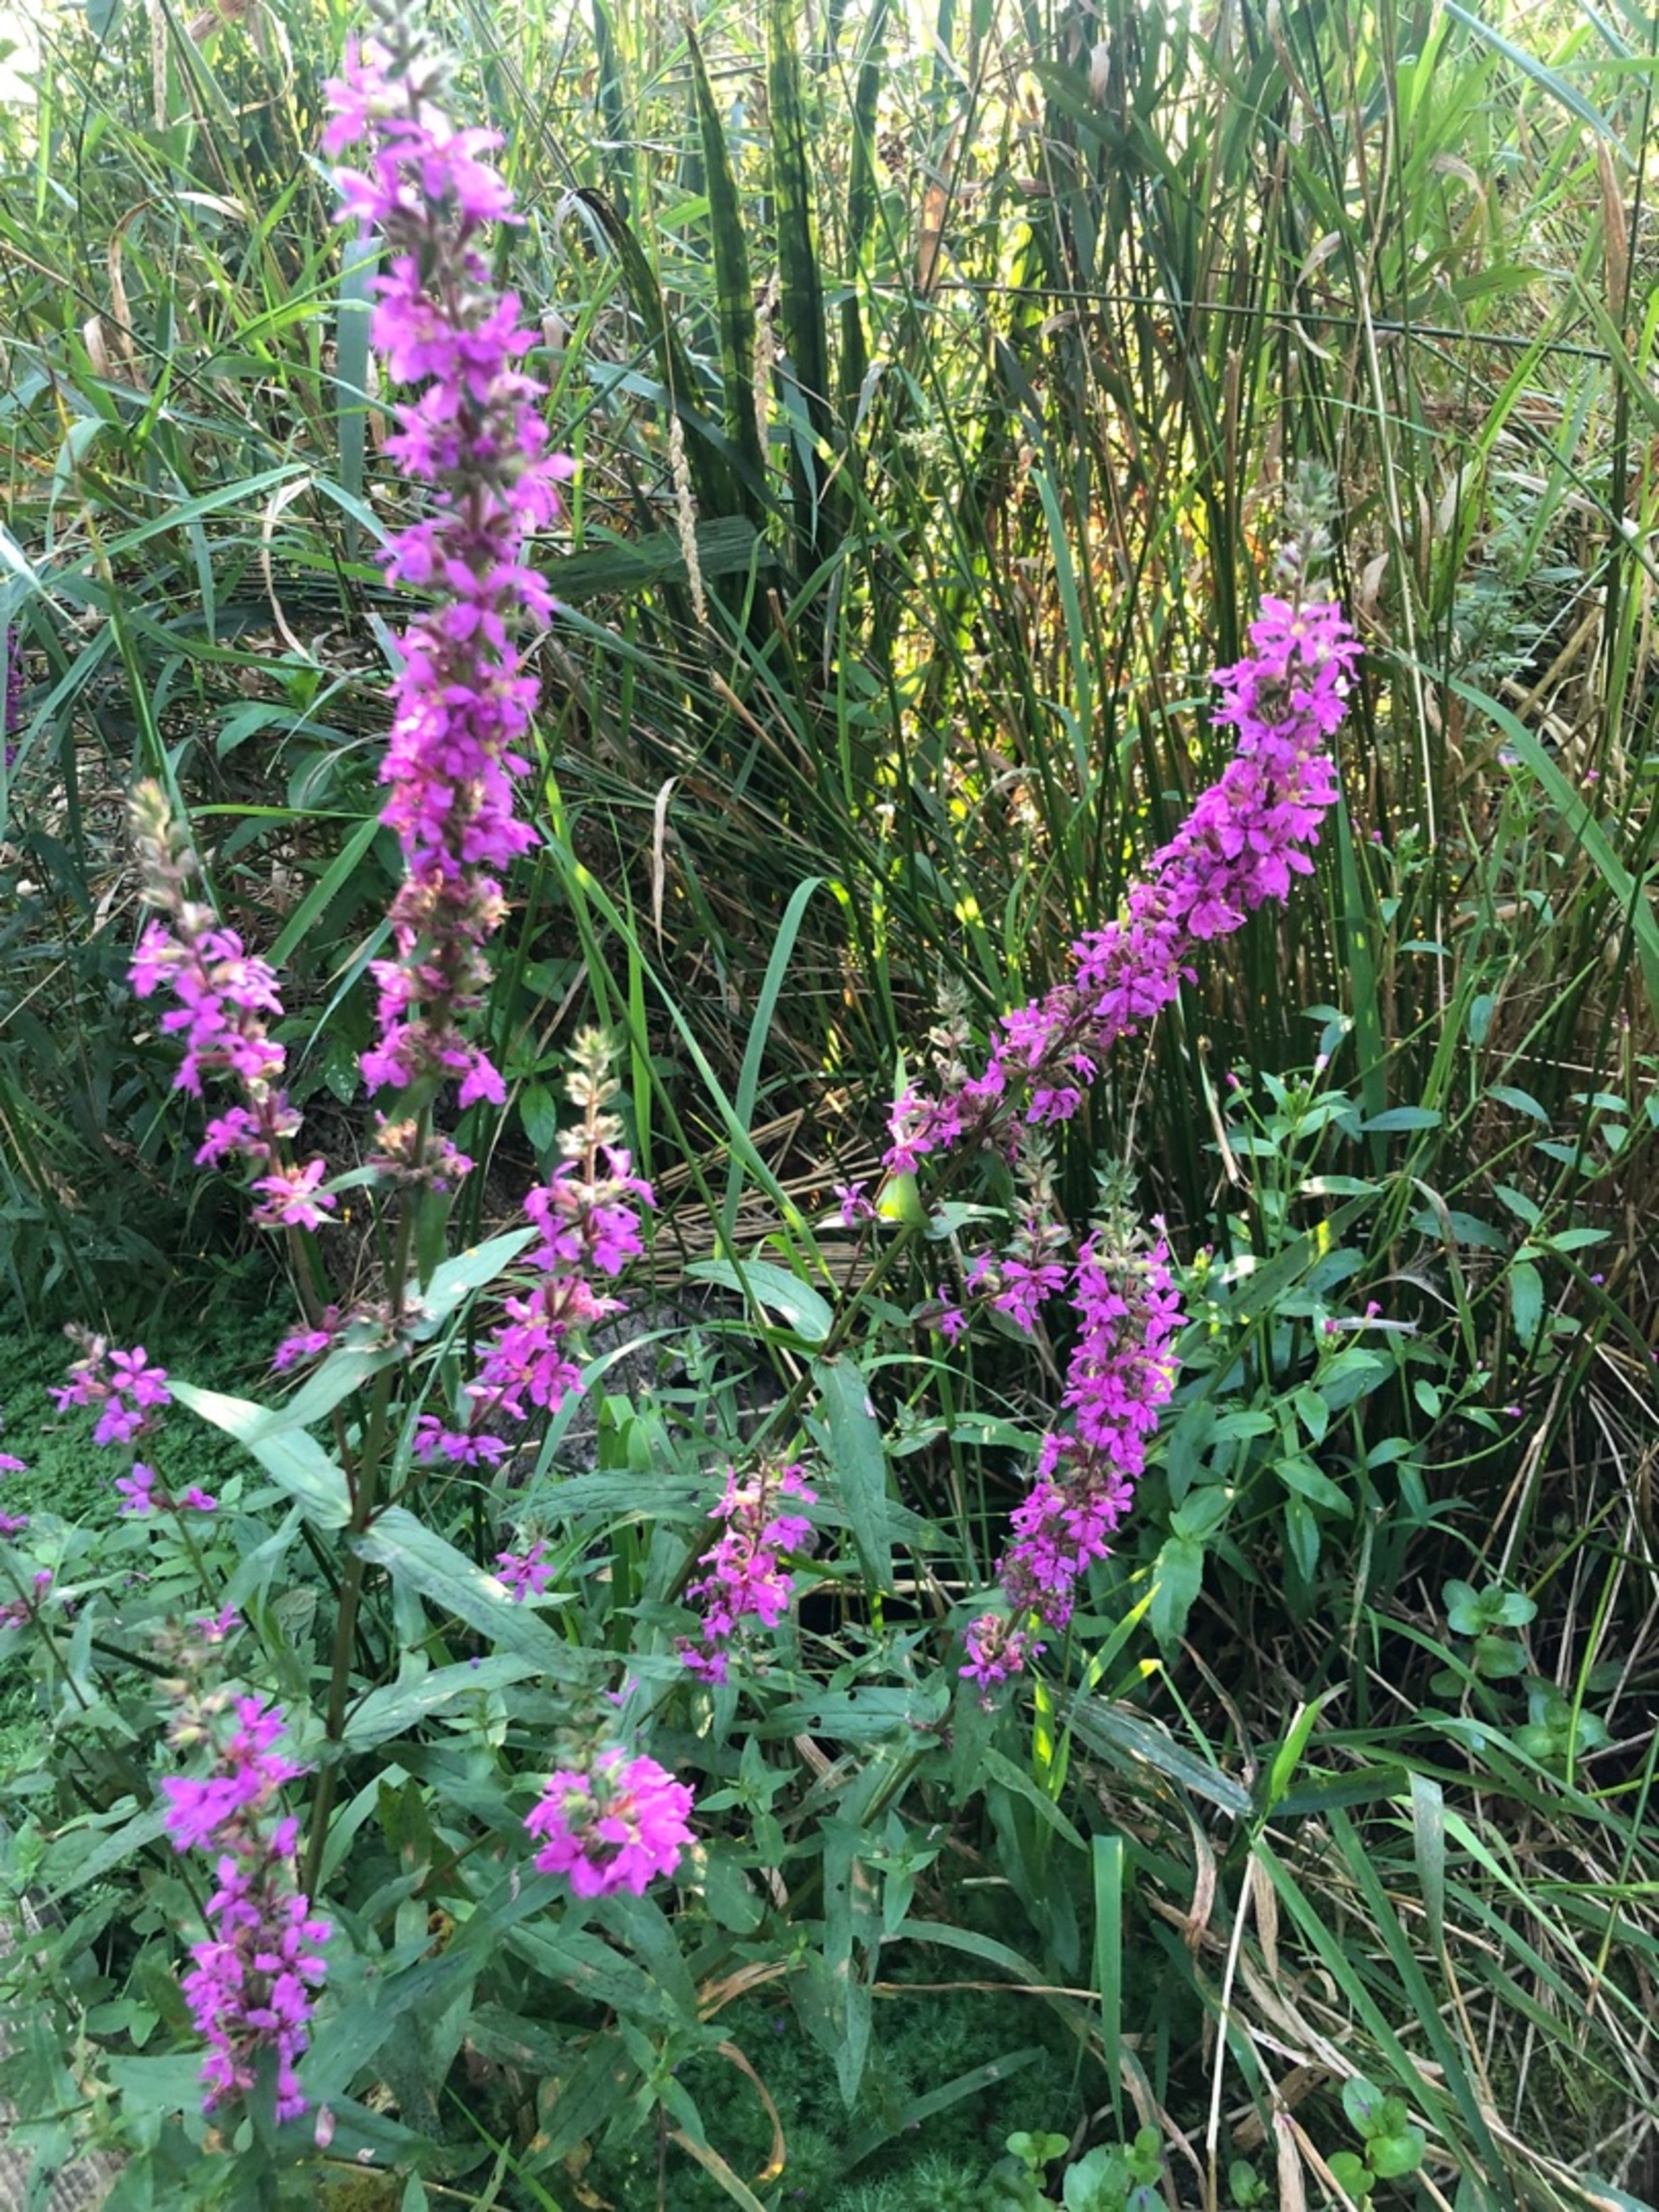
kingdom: Plantae
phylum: Tracheophyta
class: Magnoliopsida
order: Myrtales
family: Lythraceae
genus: Lythrum
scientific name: Lythrum salicaria
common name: Kattehale
